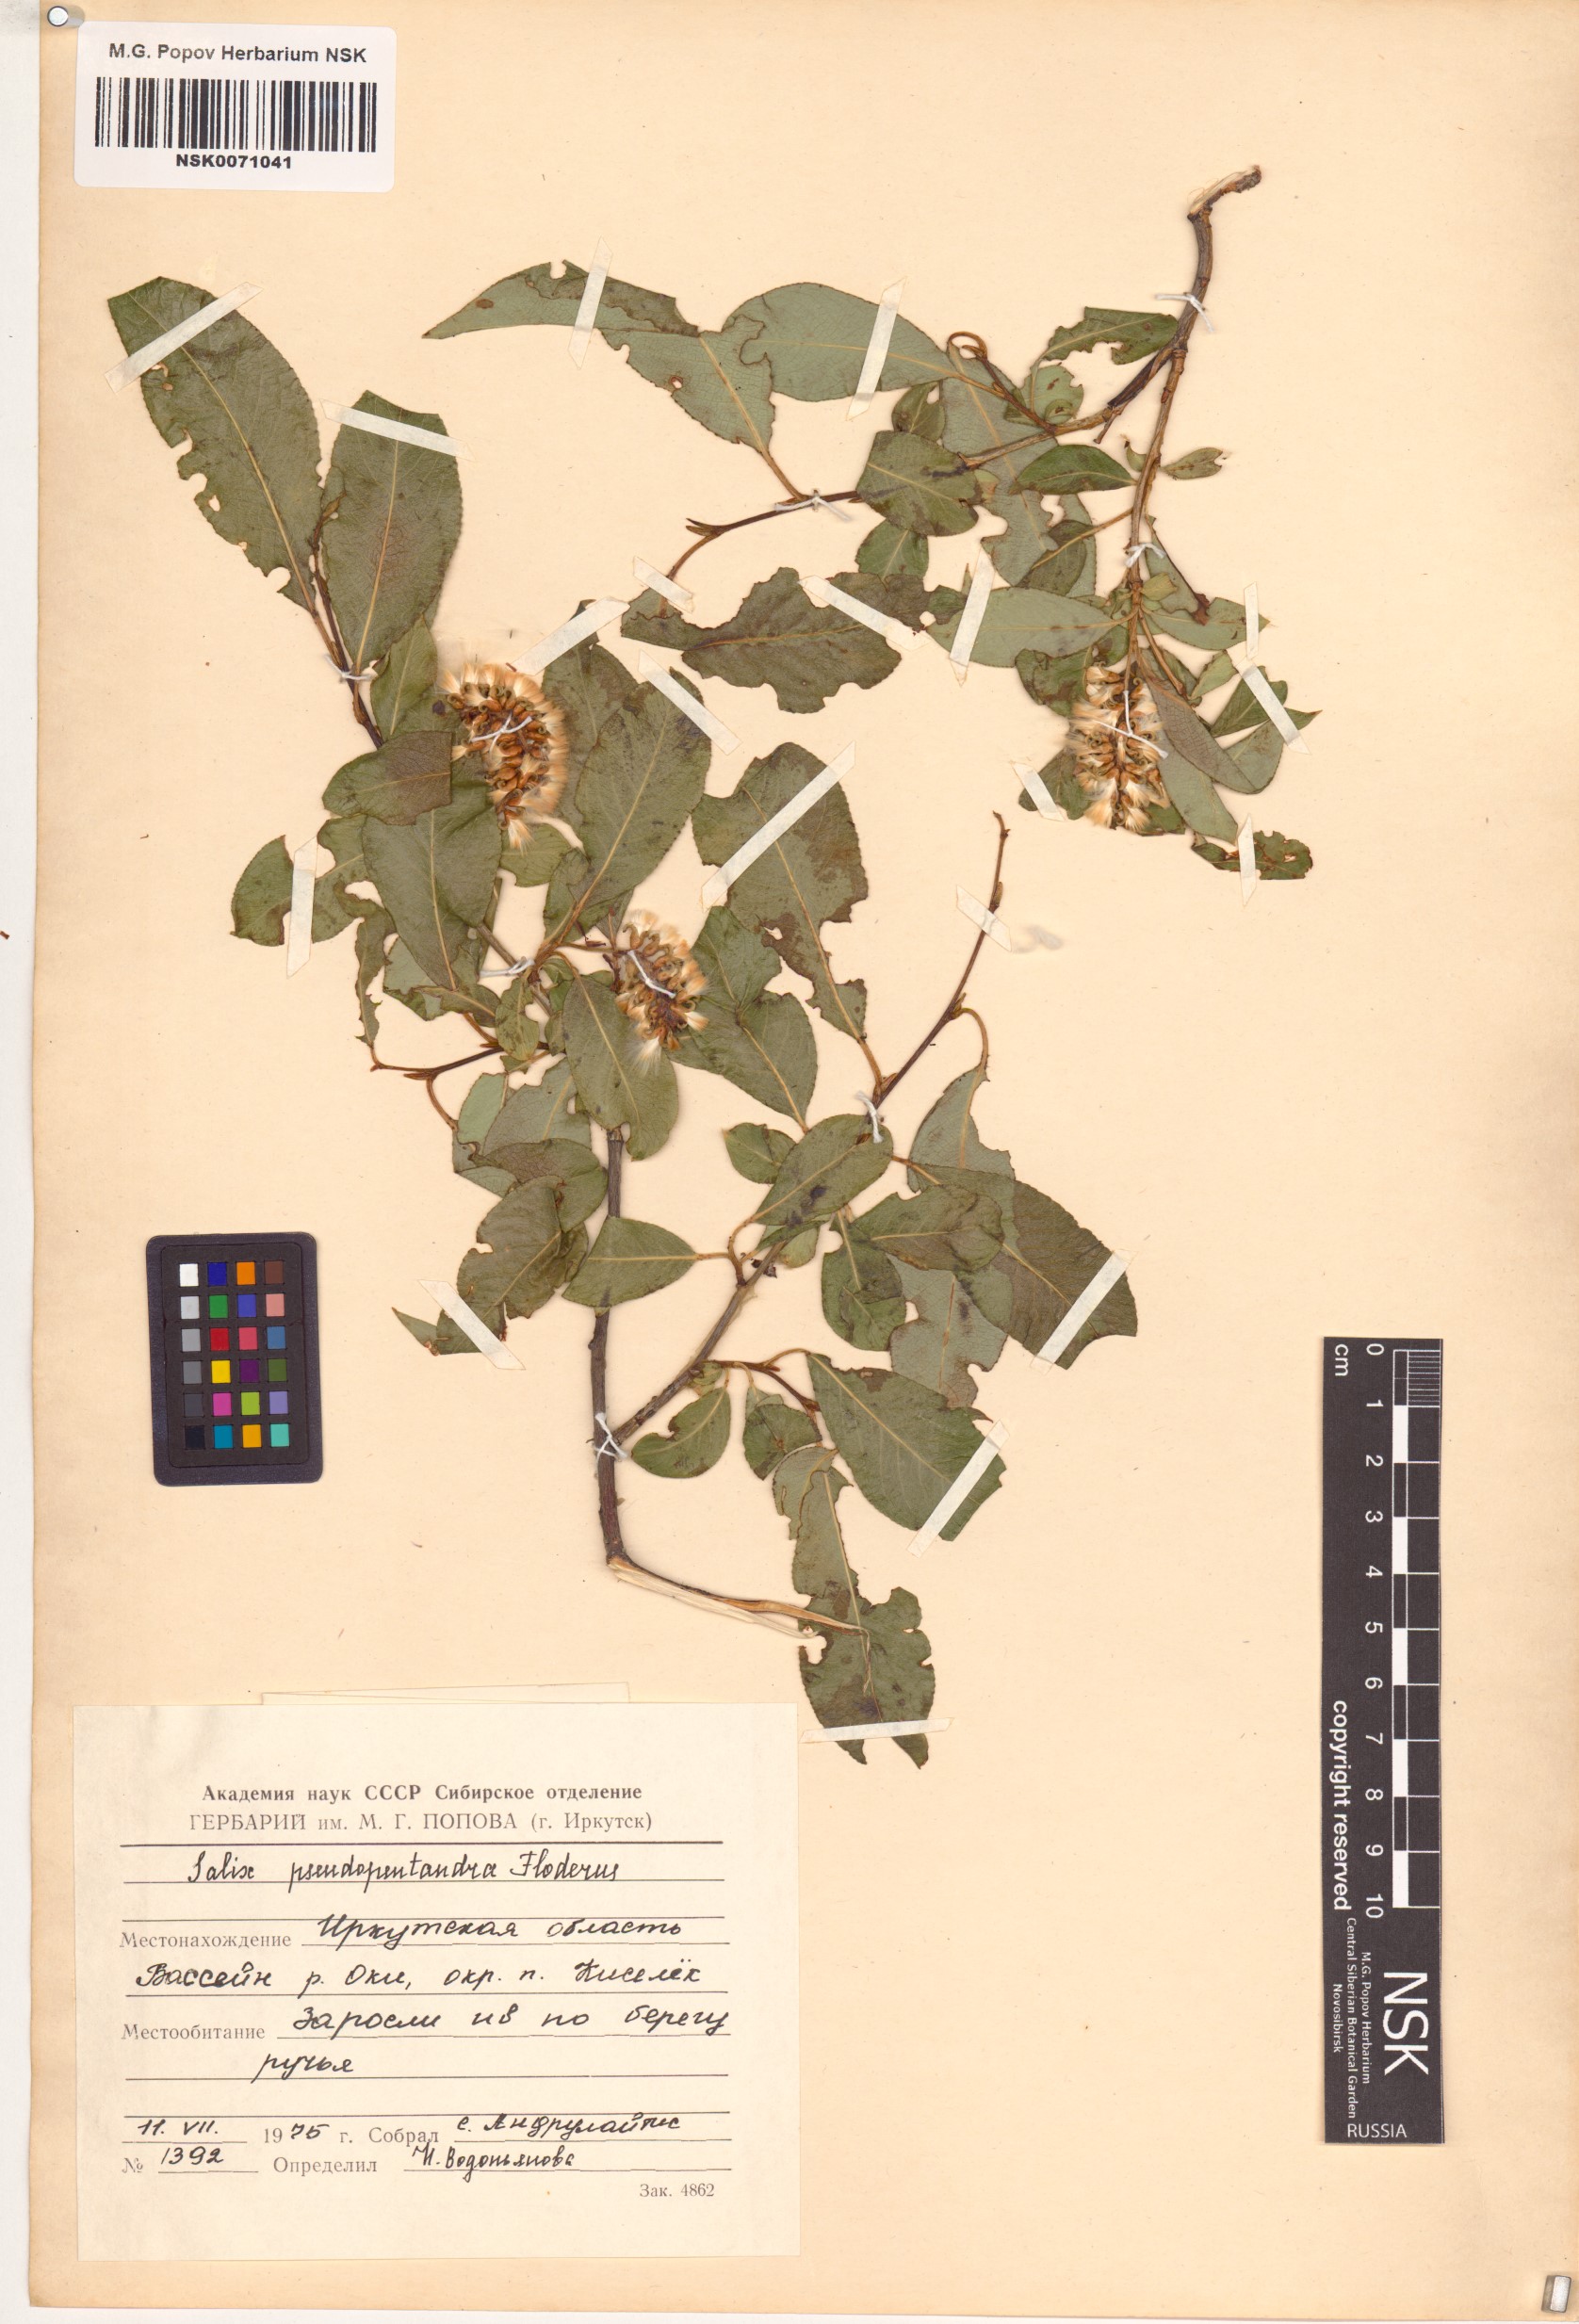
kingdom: Plantae
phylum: Tracheophyta
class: Magnoliopsida
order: Malpighiales
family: Salicaceae
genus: Salix
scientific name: Salix pseudopentandra
